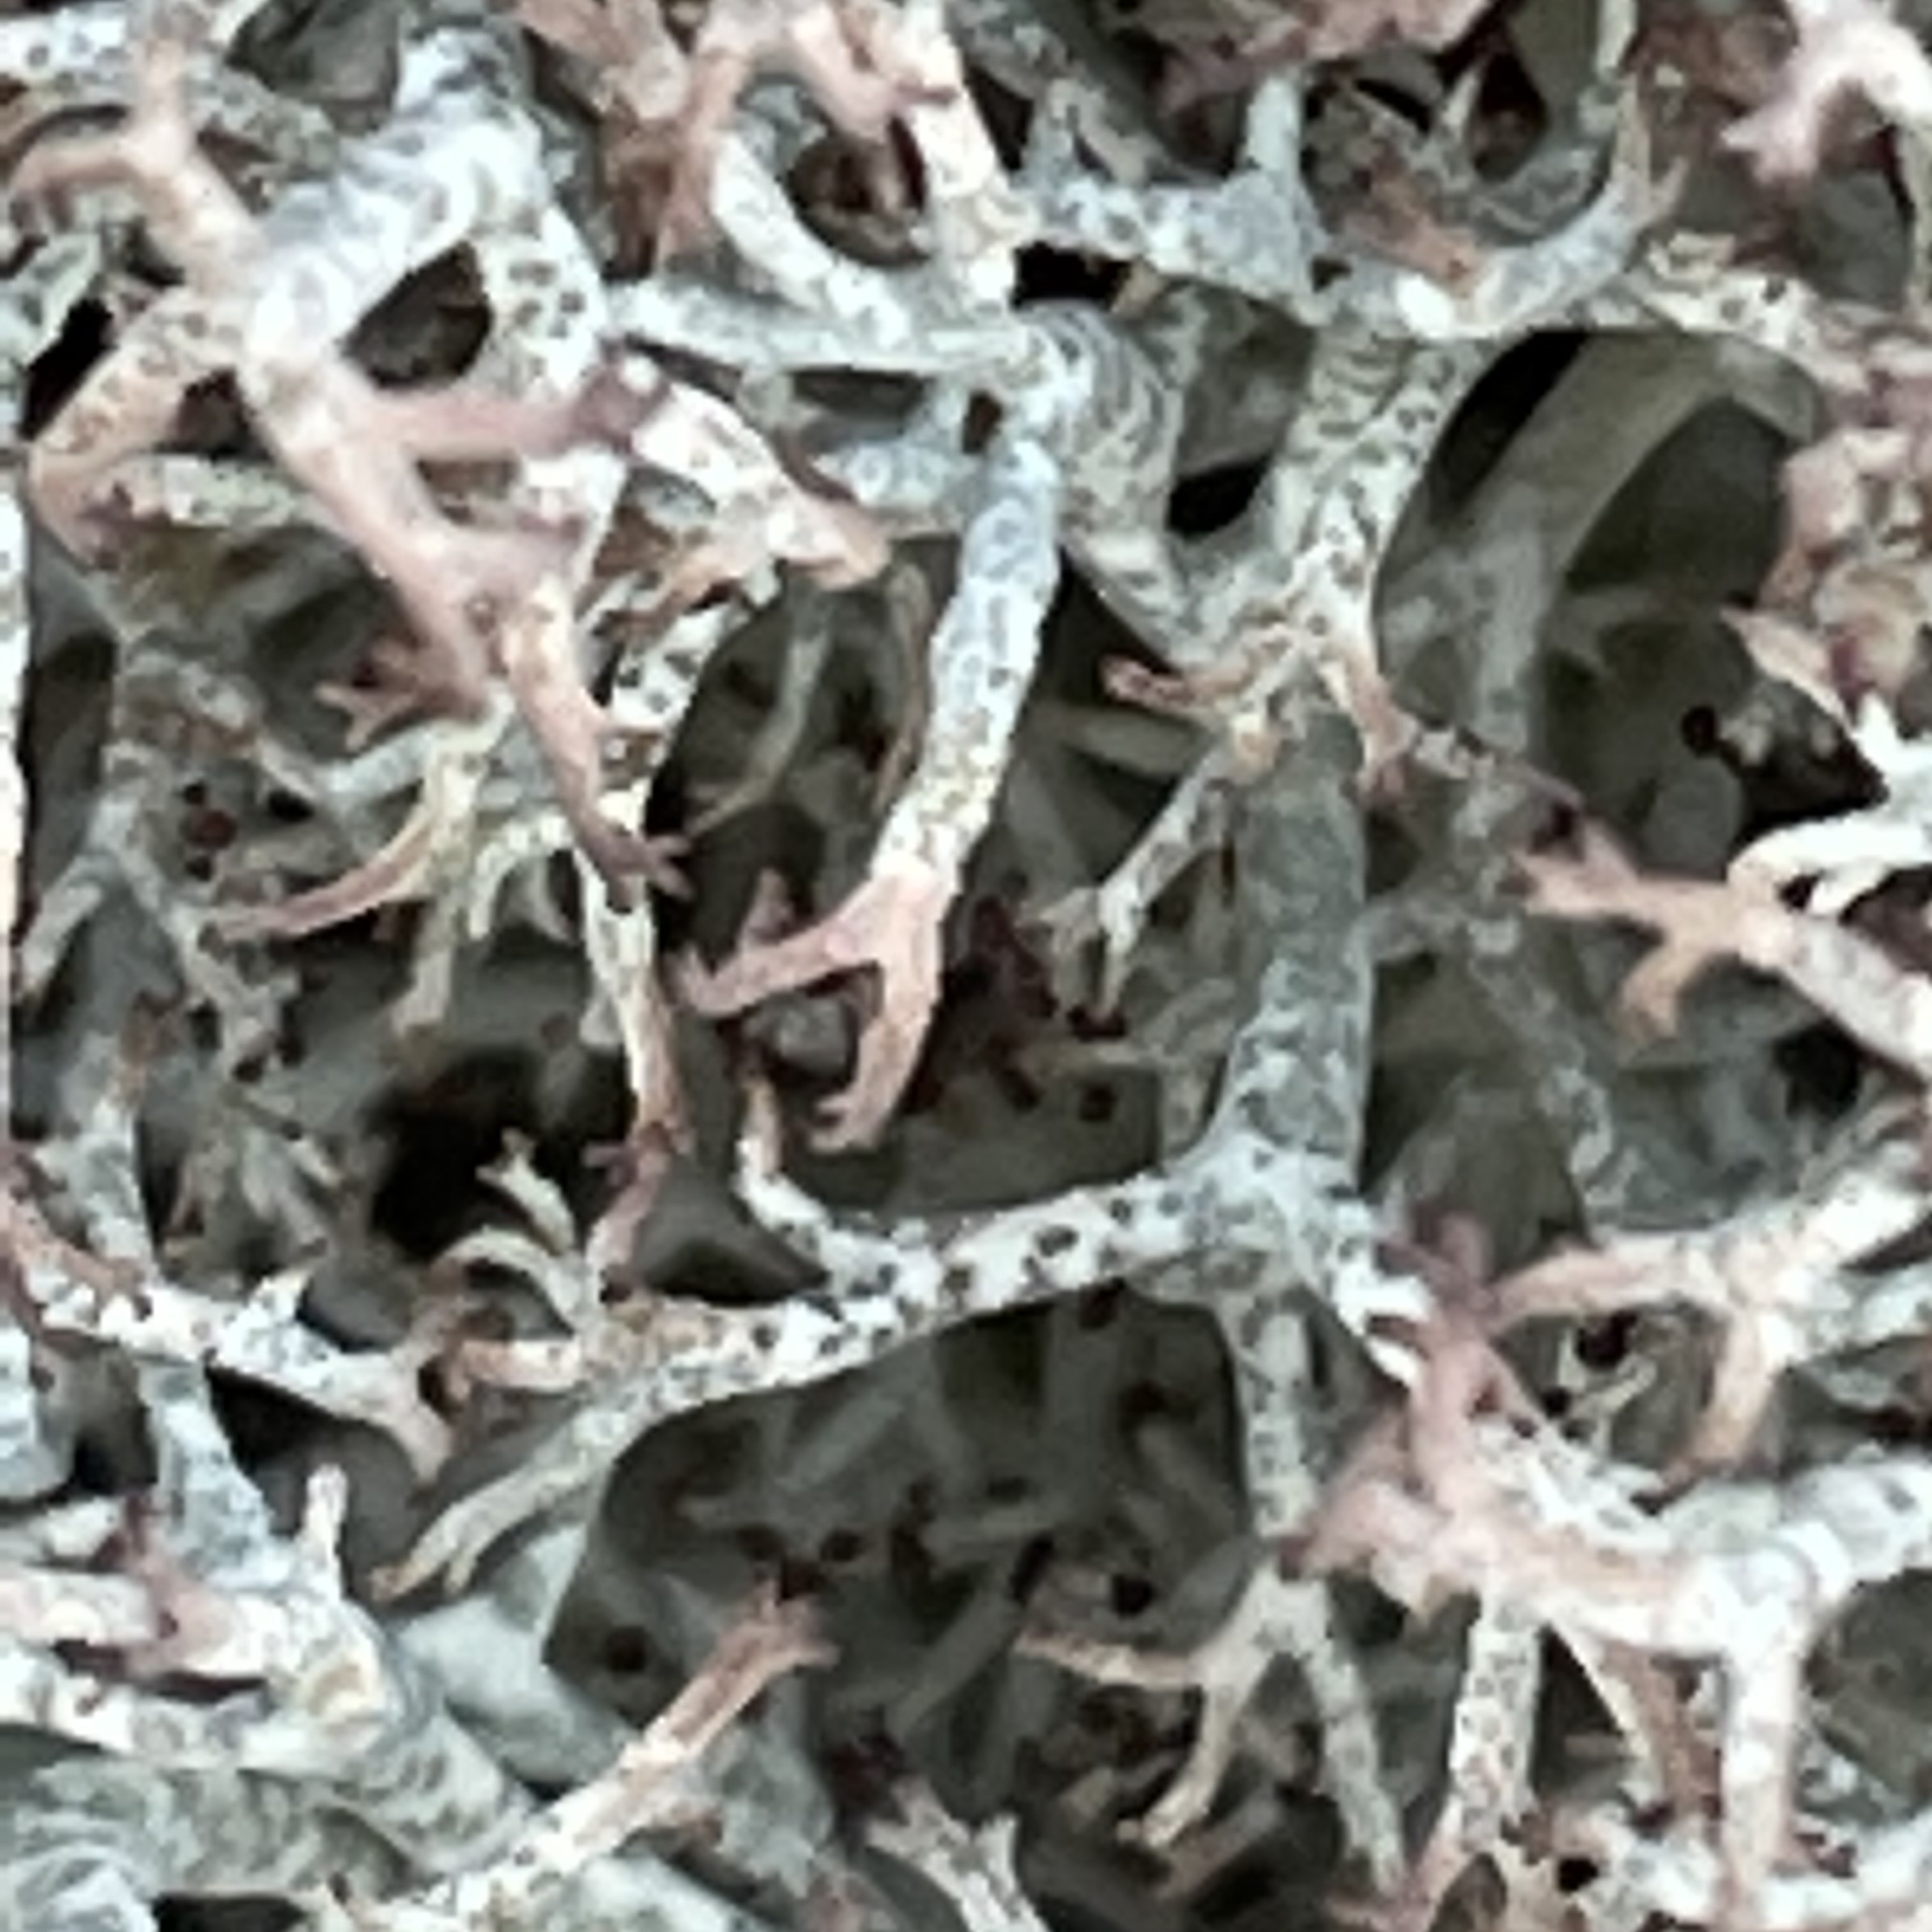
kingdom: Fungi
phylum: Ascomycota
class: Lecanoromycetes
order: Lecanorales
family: Cladoniaceae
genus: Cladonia
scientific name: Cladonia rangiformis
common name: spættet bægerlav
